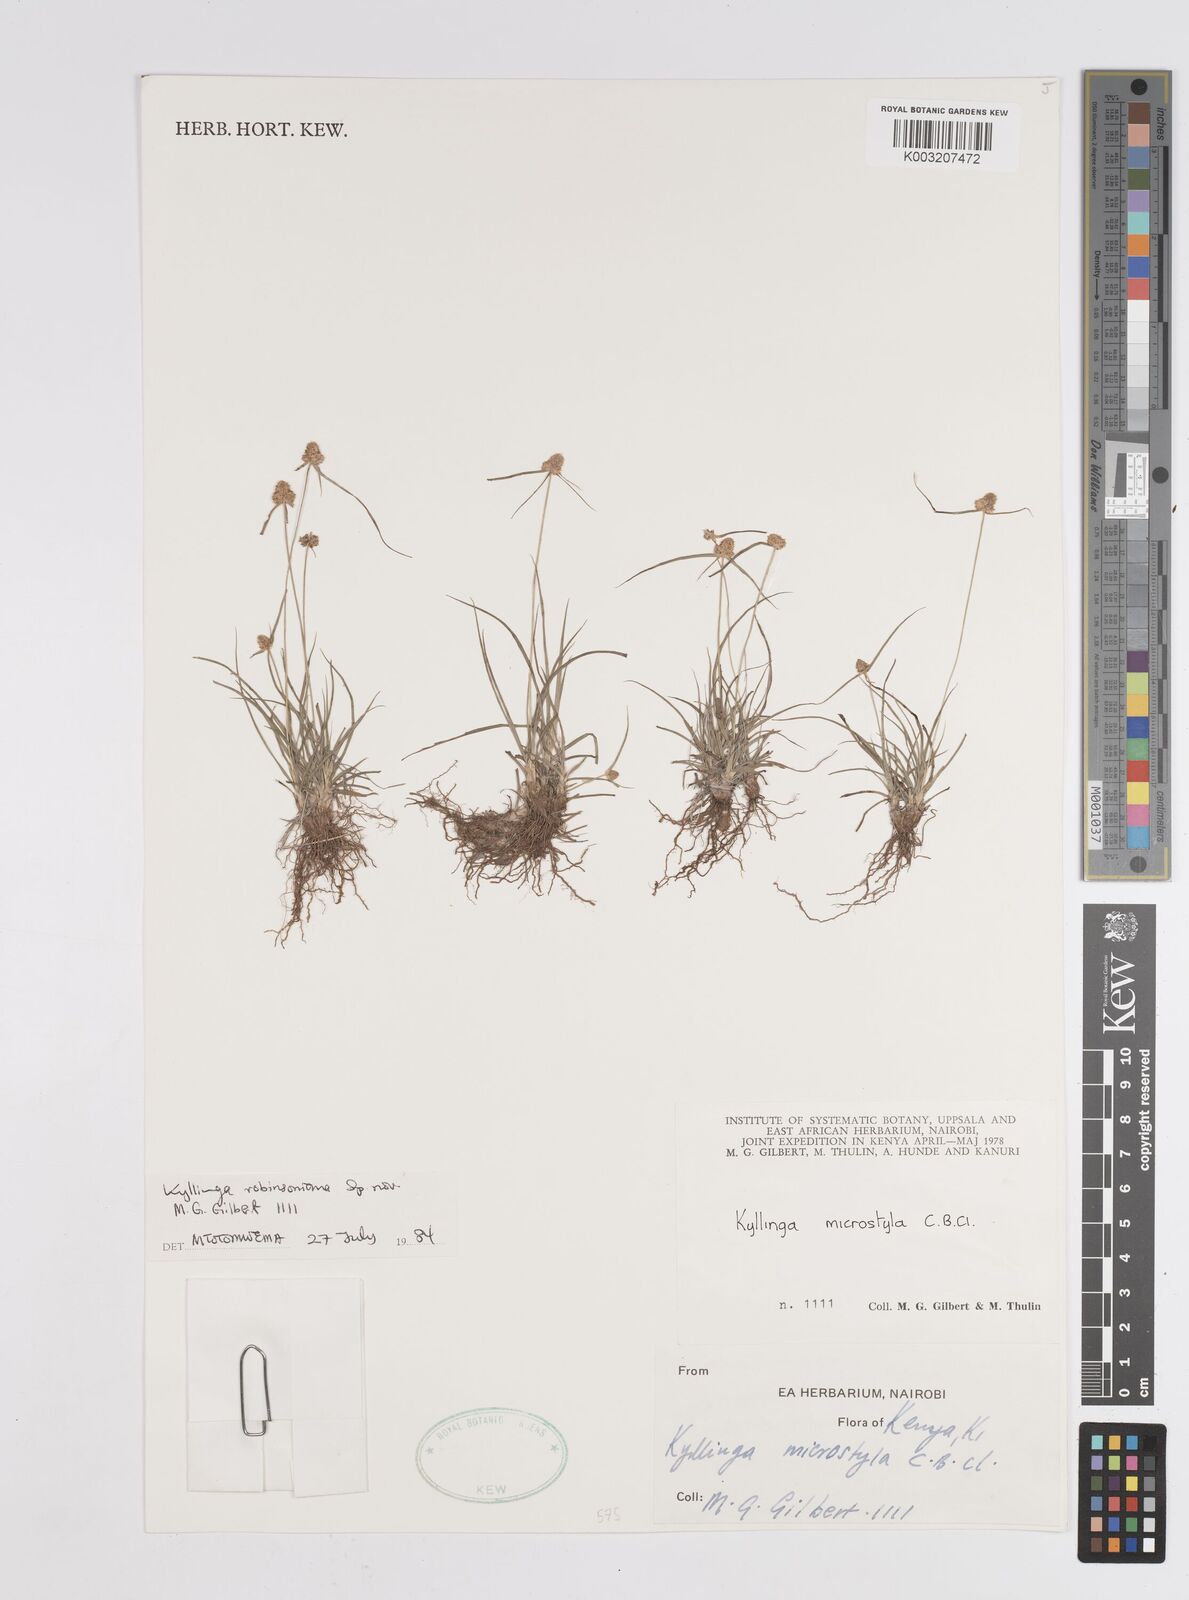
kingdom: Plantae
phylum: Tracheophyta
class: Liliopsida
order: Poales
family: Cyperaceae
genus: Cyperus
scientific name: Cyperus microstylus
